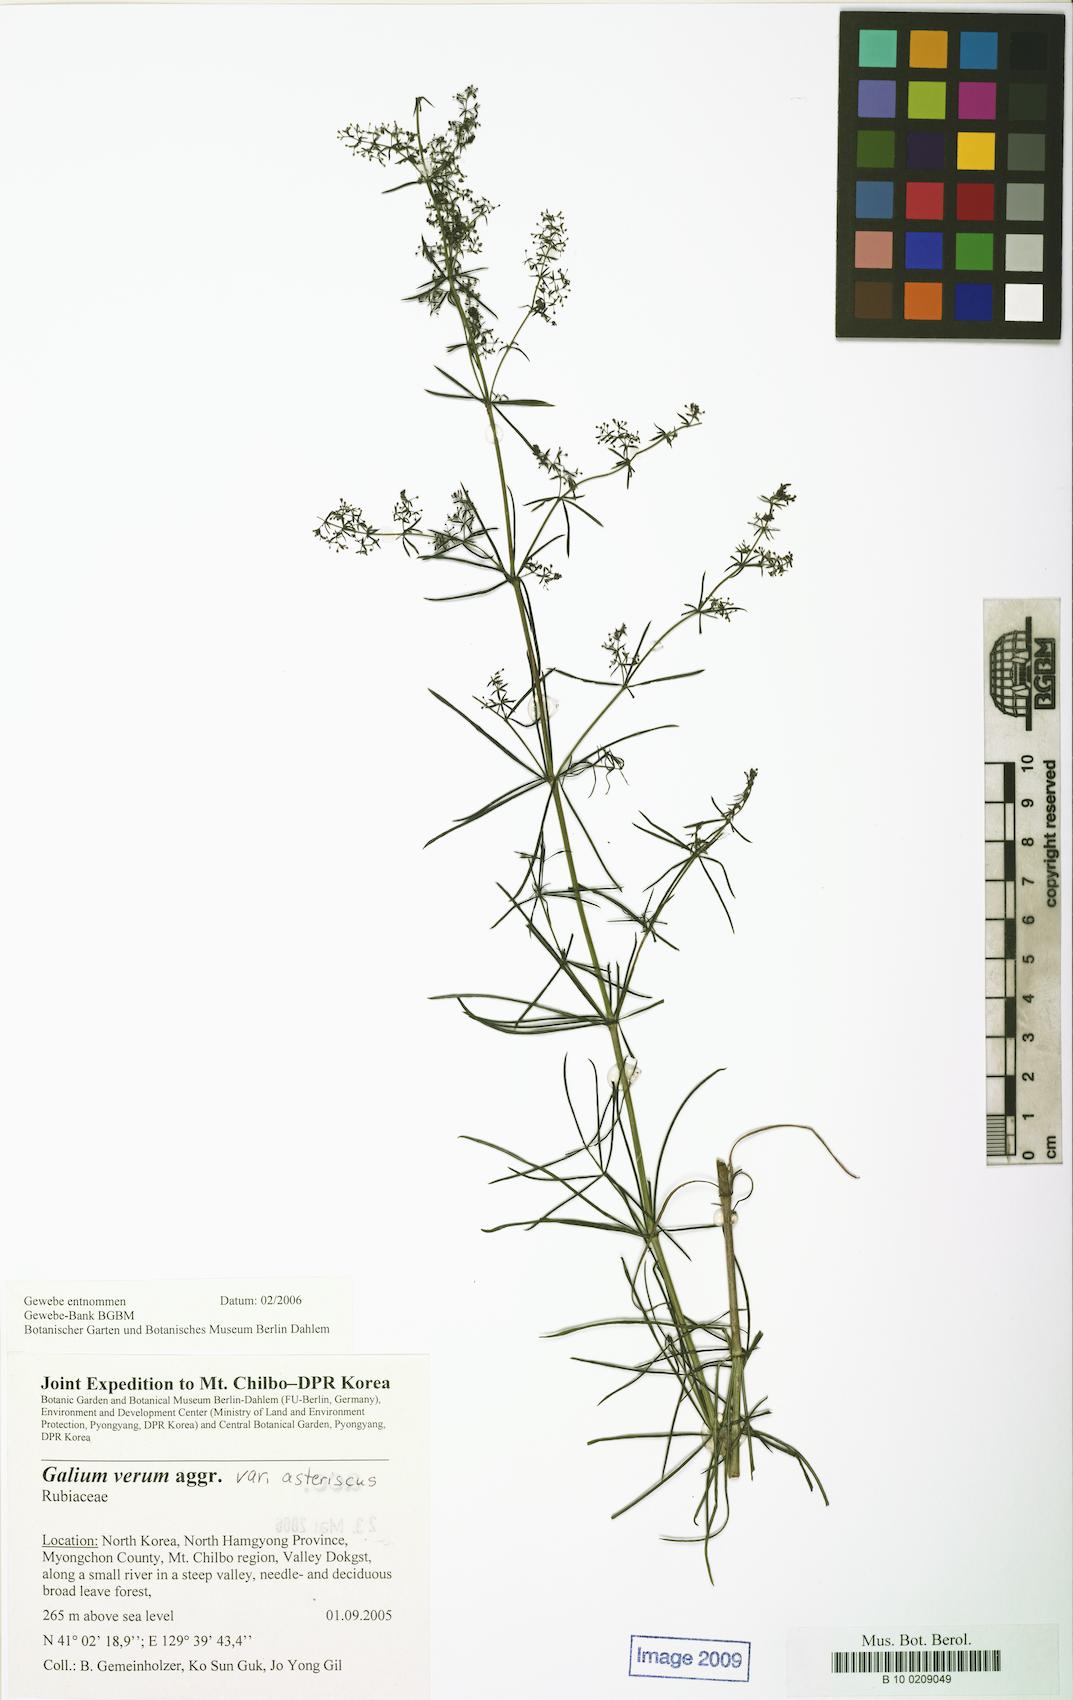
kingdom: Plantae
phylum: Tracheophyta
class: Magnoliopsida
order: Gentianales
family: Rubiaceae
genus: Galium
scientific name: Galium verum
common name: Lady's bedstraw
